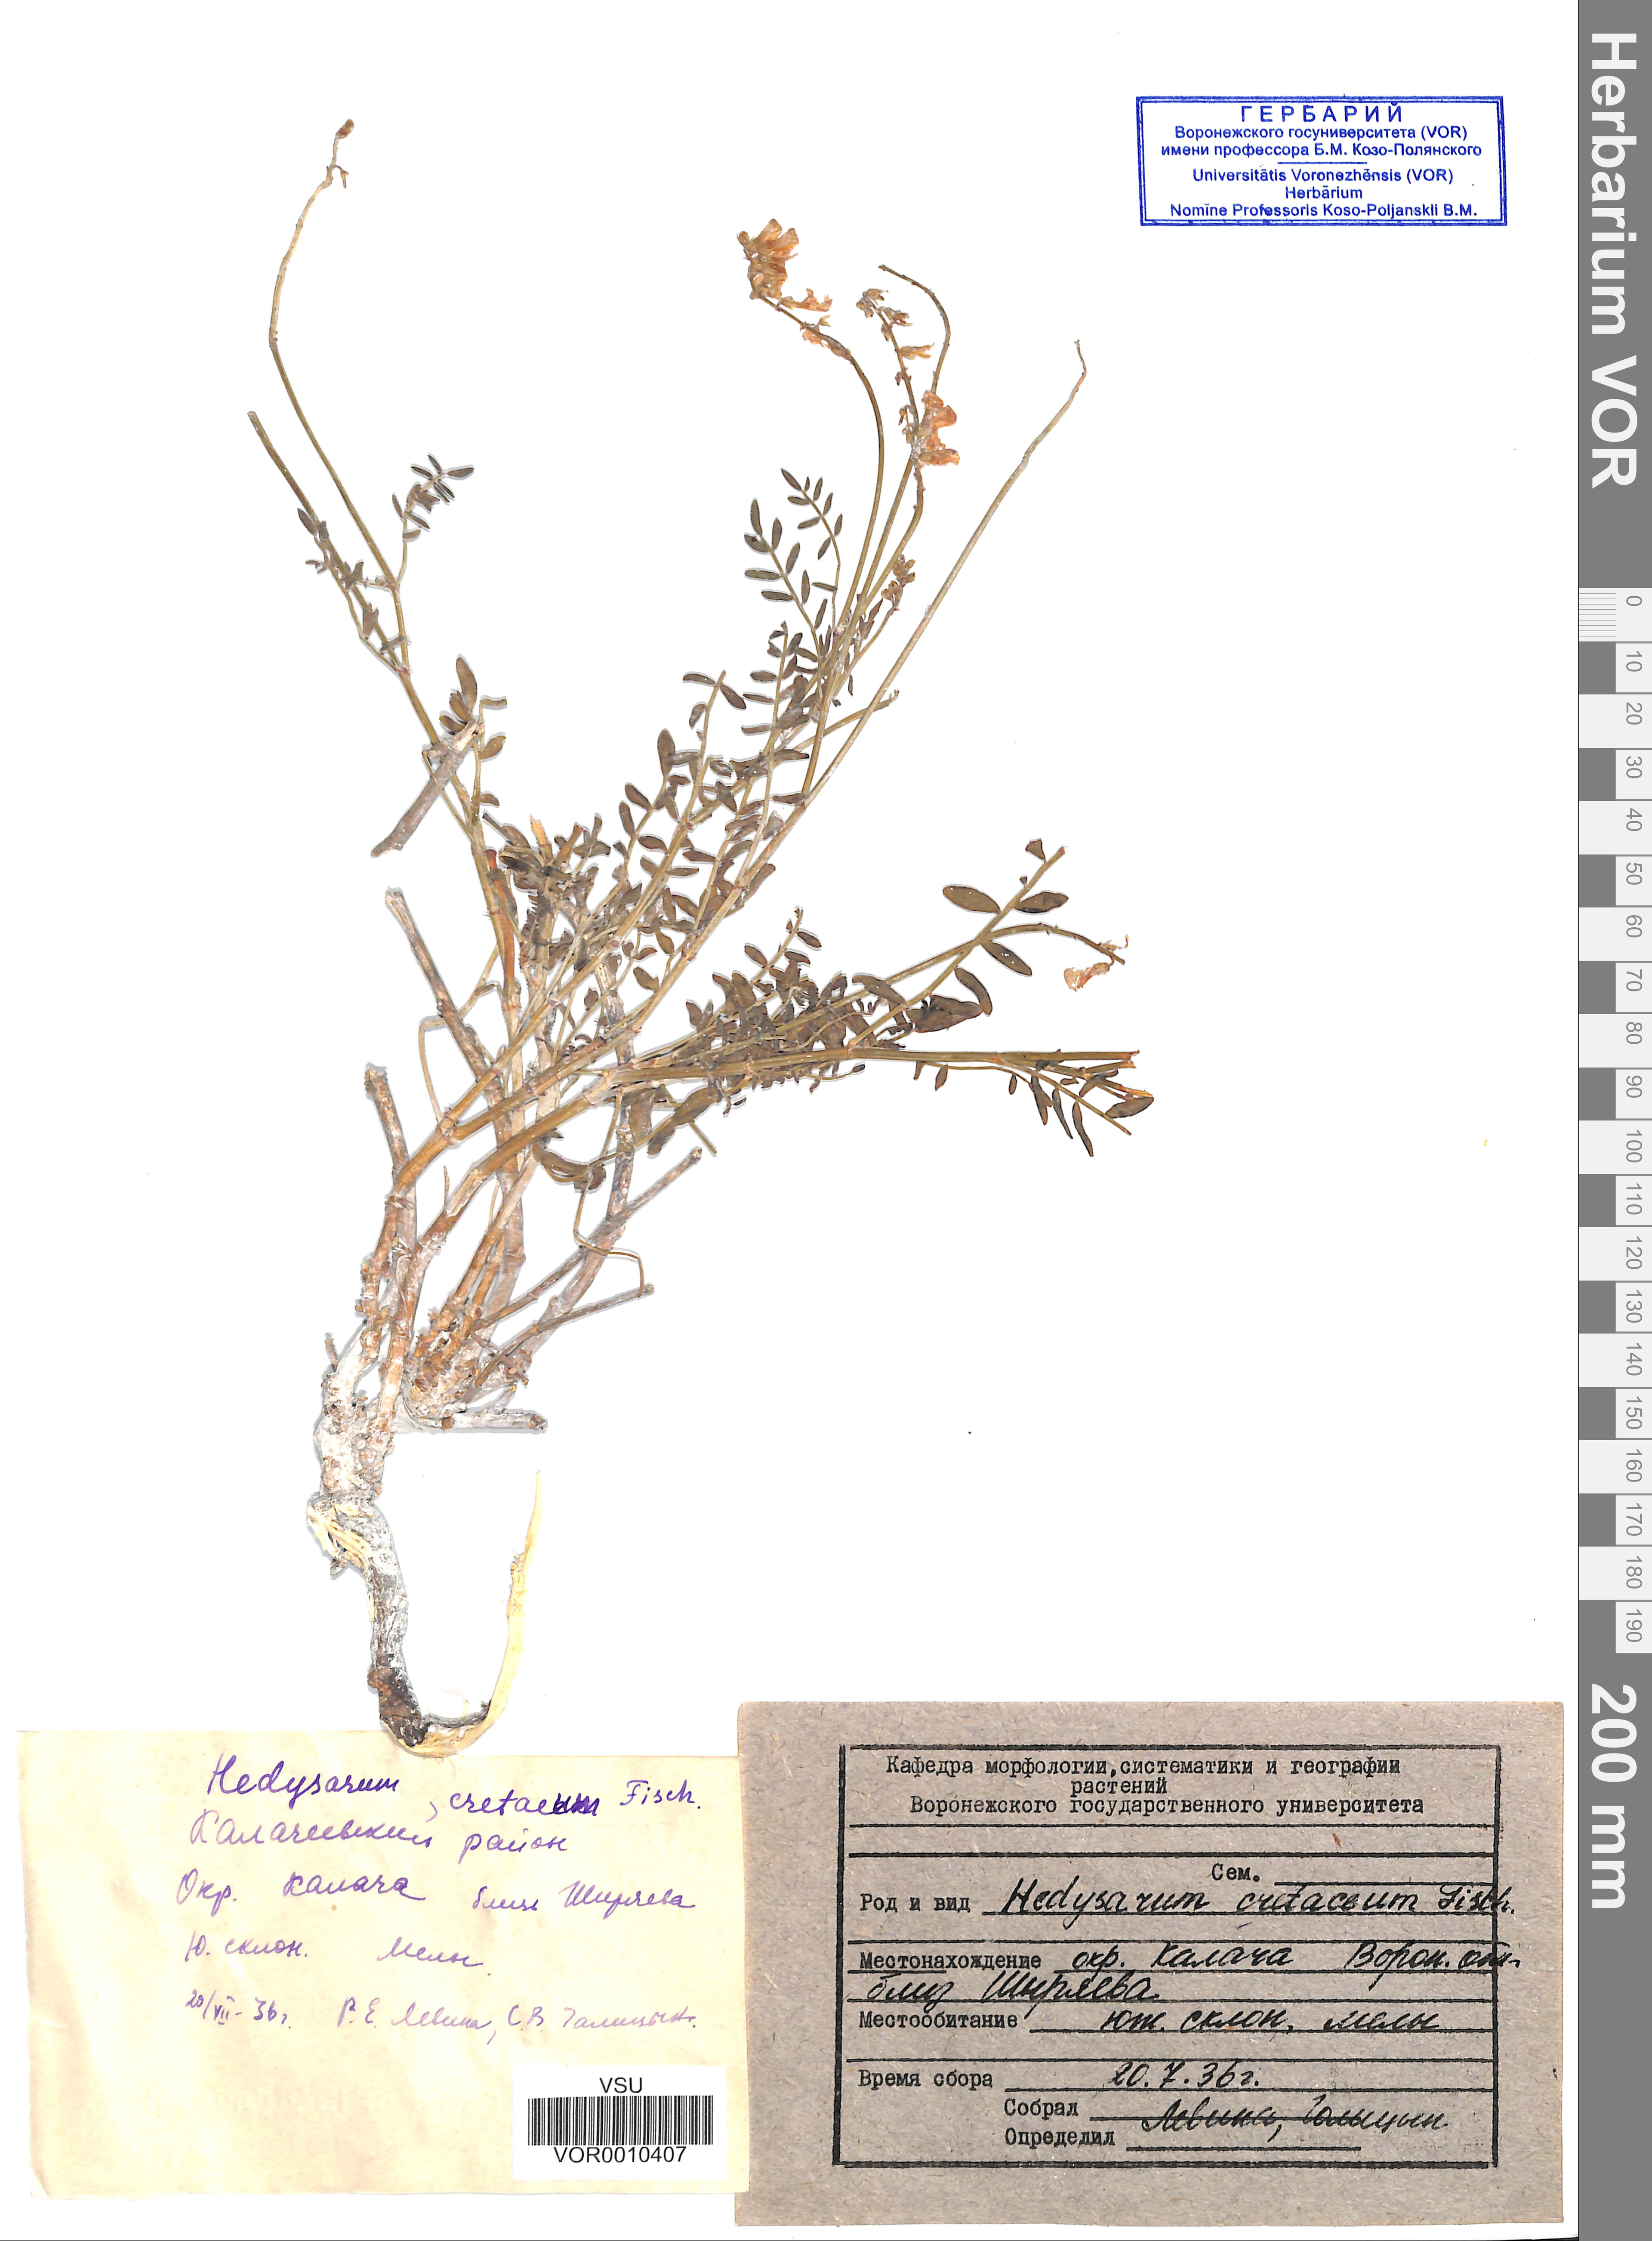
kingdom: Plantae
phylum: Tracheophyta
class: Magnoliopsida
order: Fabales
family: Fabaceae
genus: Hedysarum
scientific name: Hedysarum cretaceum
